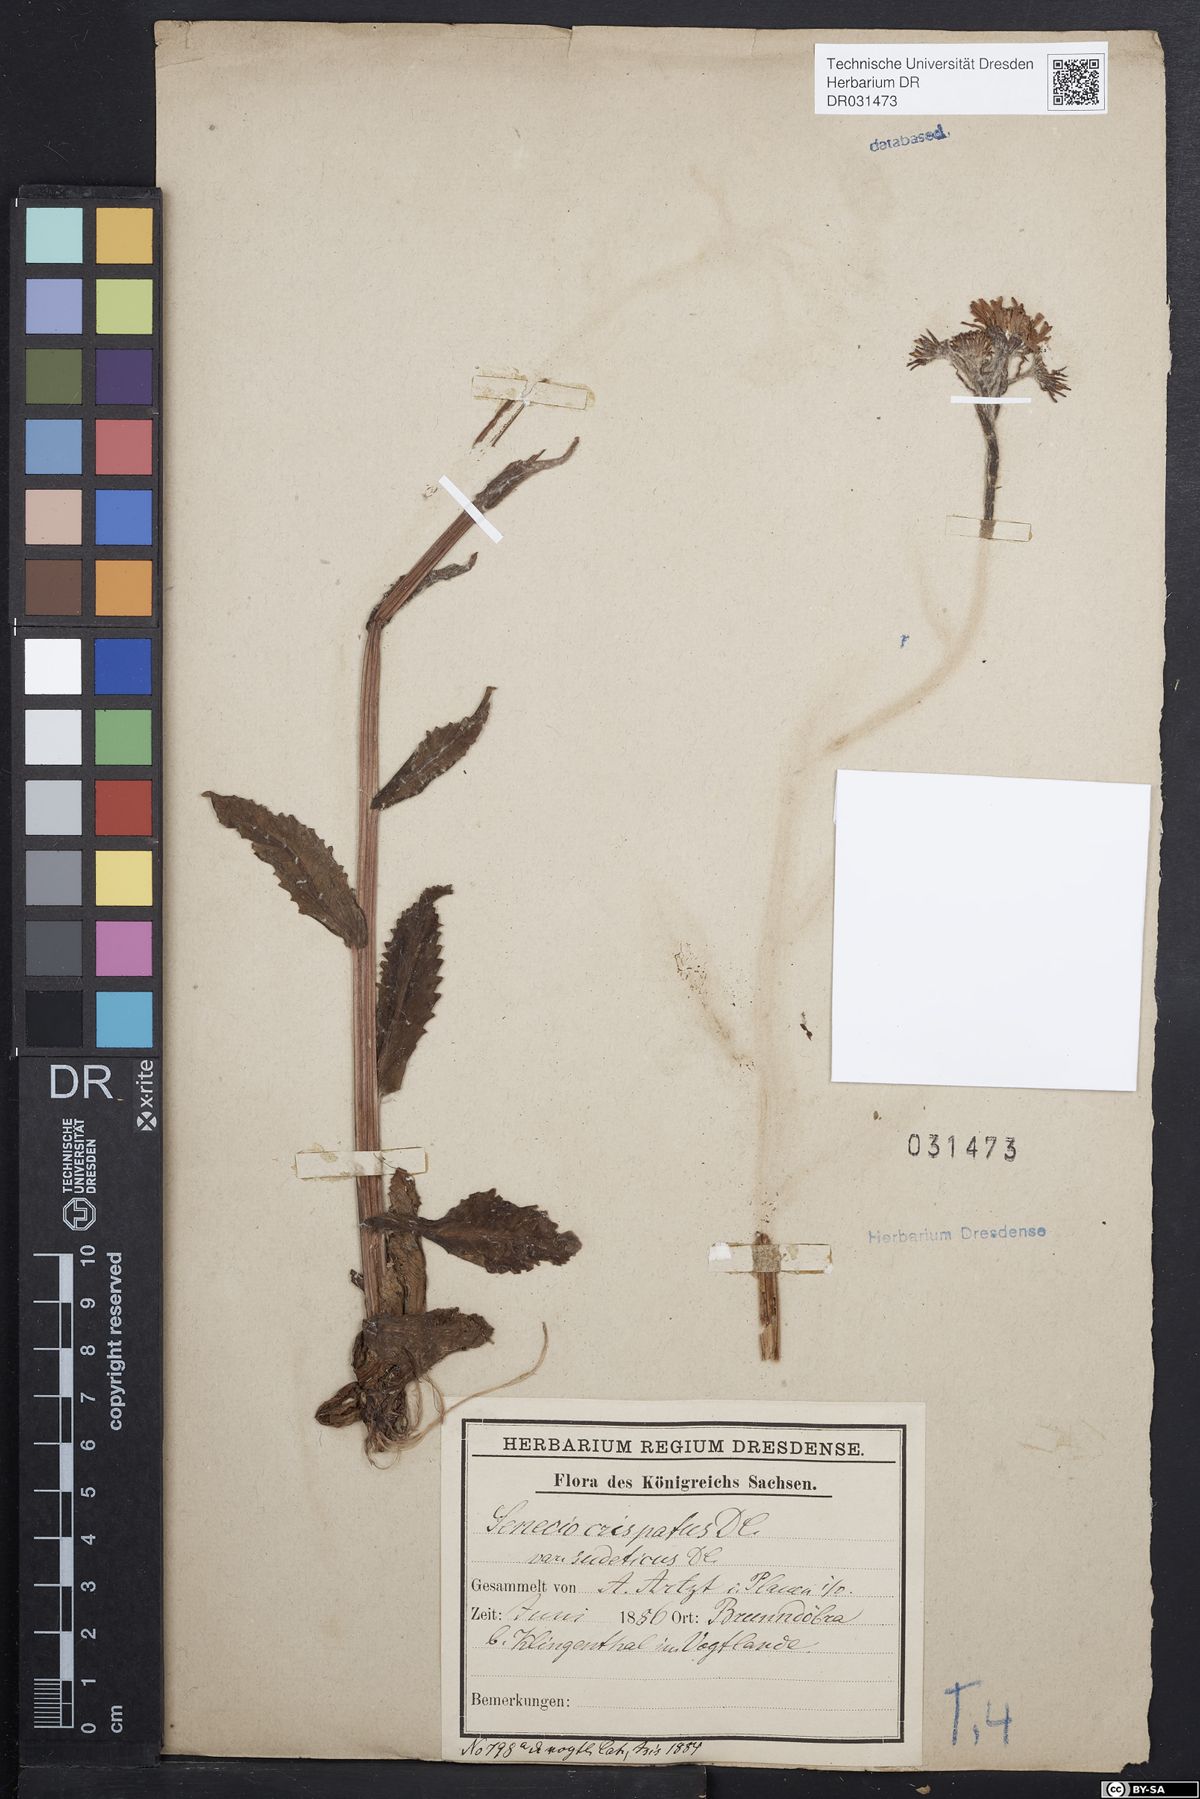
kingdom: Plantae
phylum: Tracheophyta
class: Magnoliopsida
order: Asterales
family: Asteraceae
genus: Tephroseris
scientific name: Tephroseris crispa
